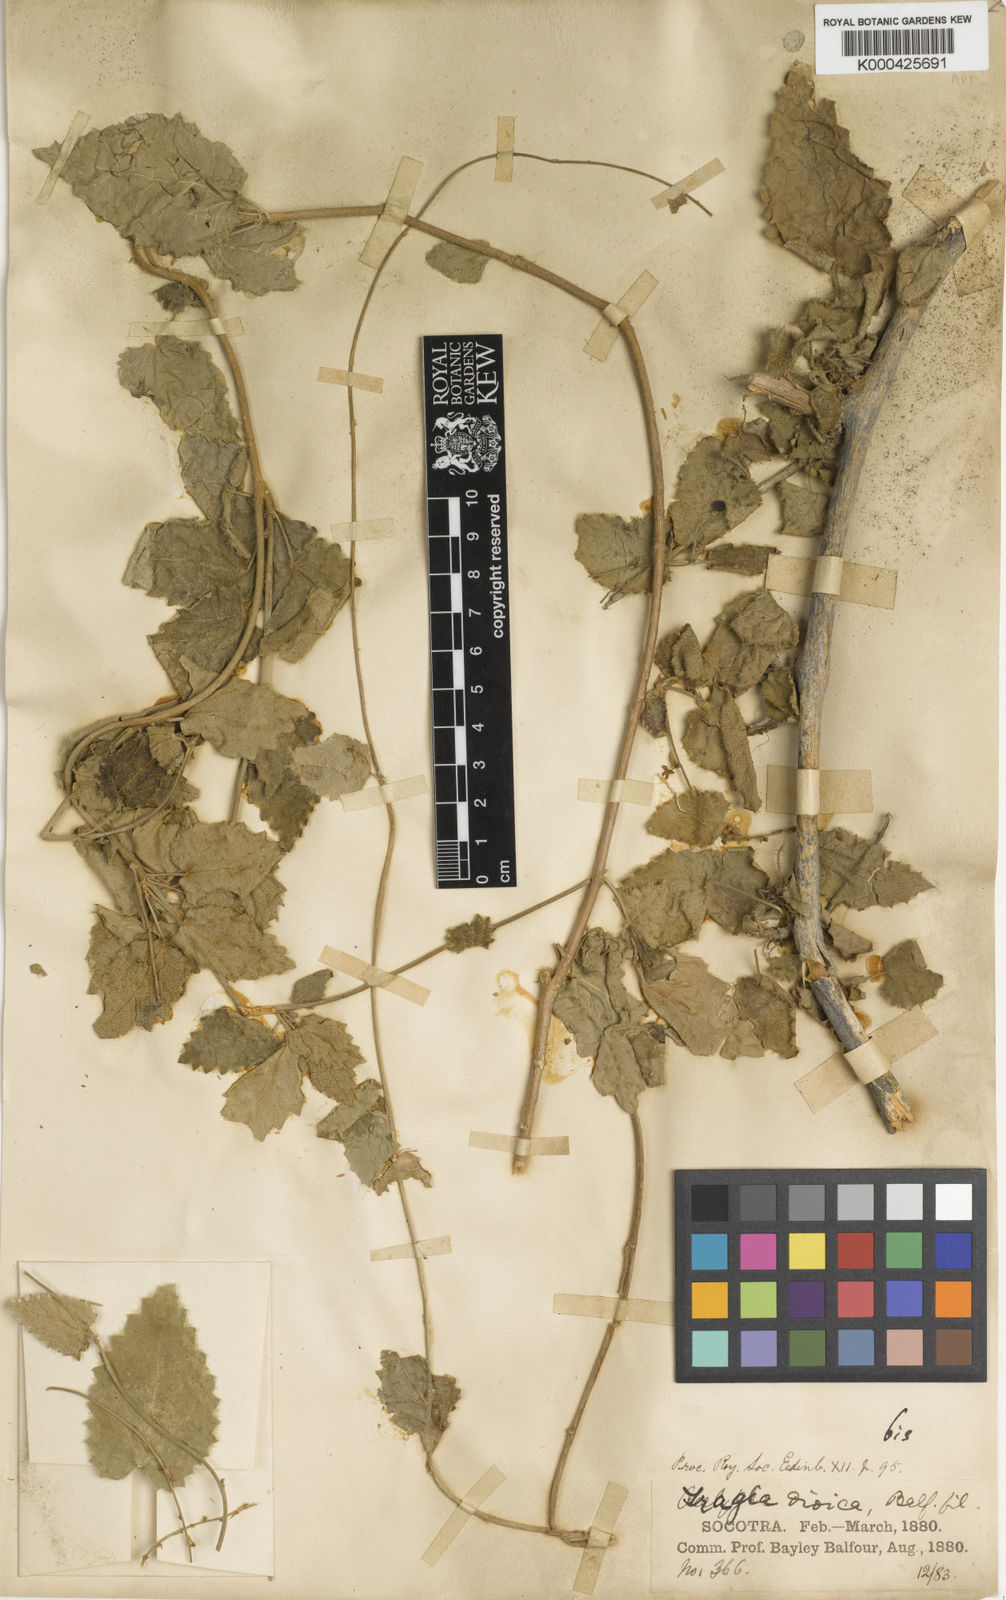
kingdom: Plantae
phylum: Tracheophyta
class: Magnoliopsida
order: Malpighiales
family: Euphorbiaceae
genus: Tragia
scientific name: Tragia
